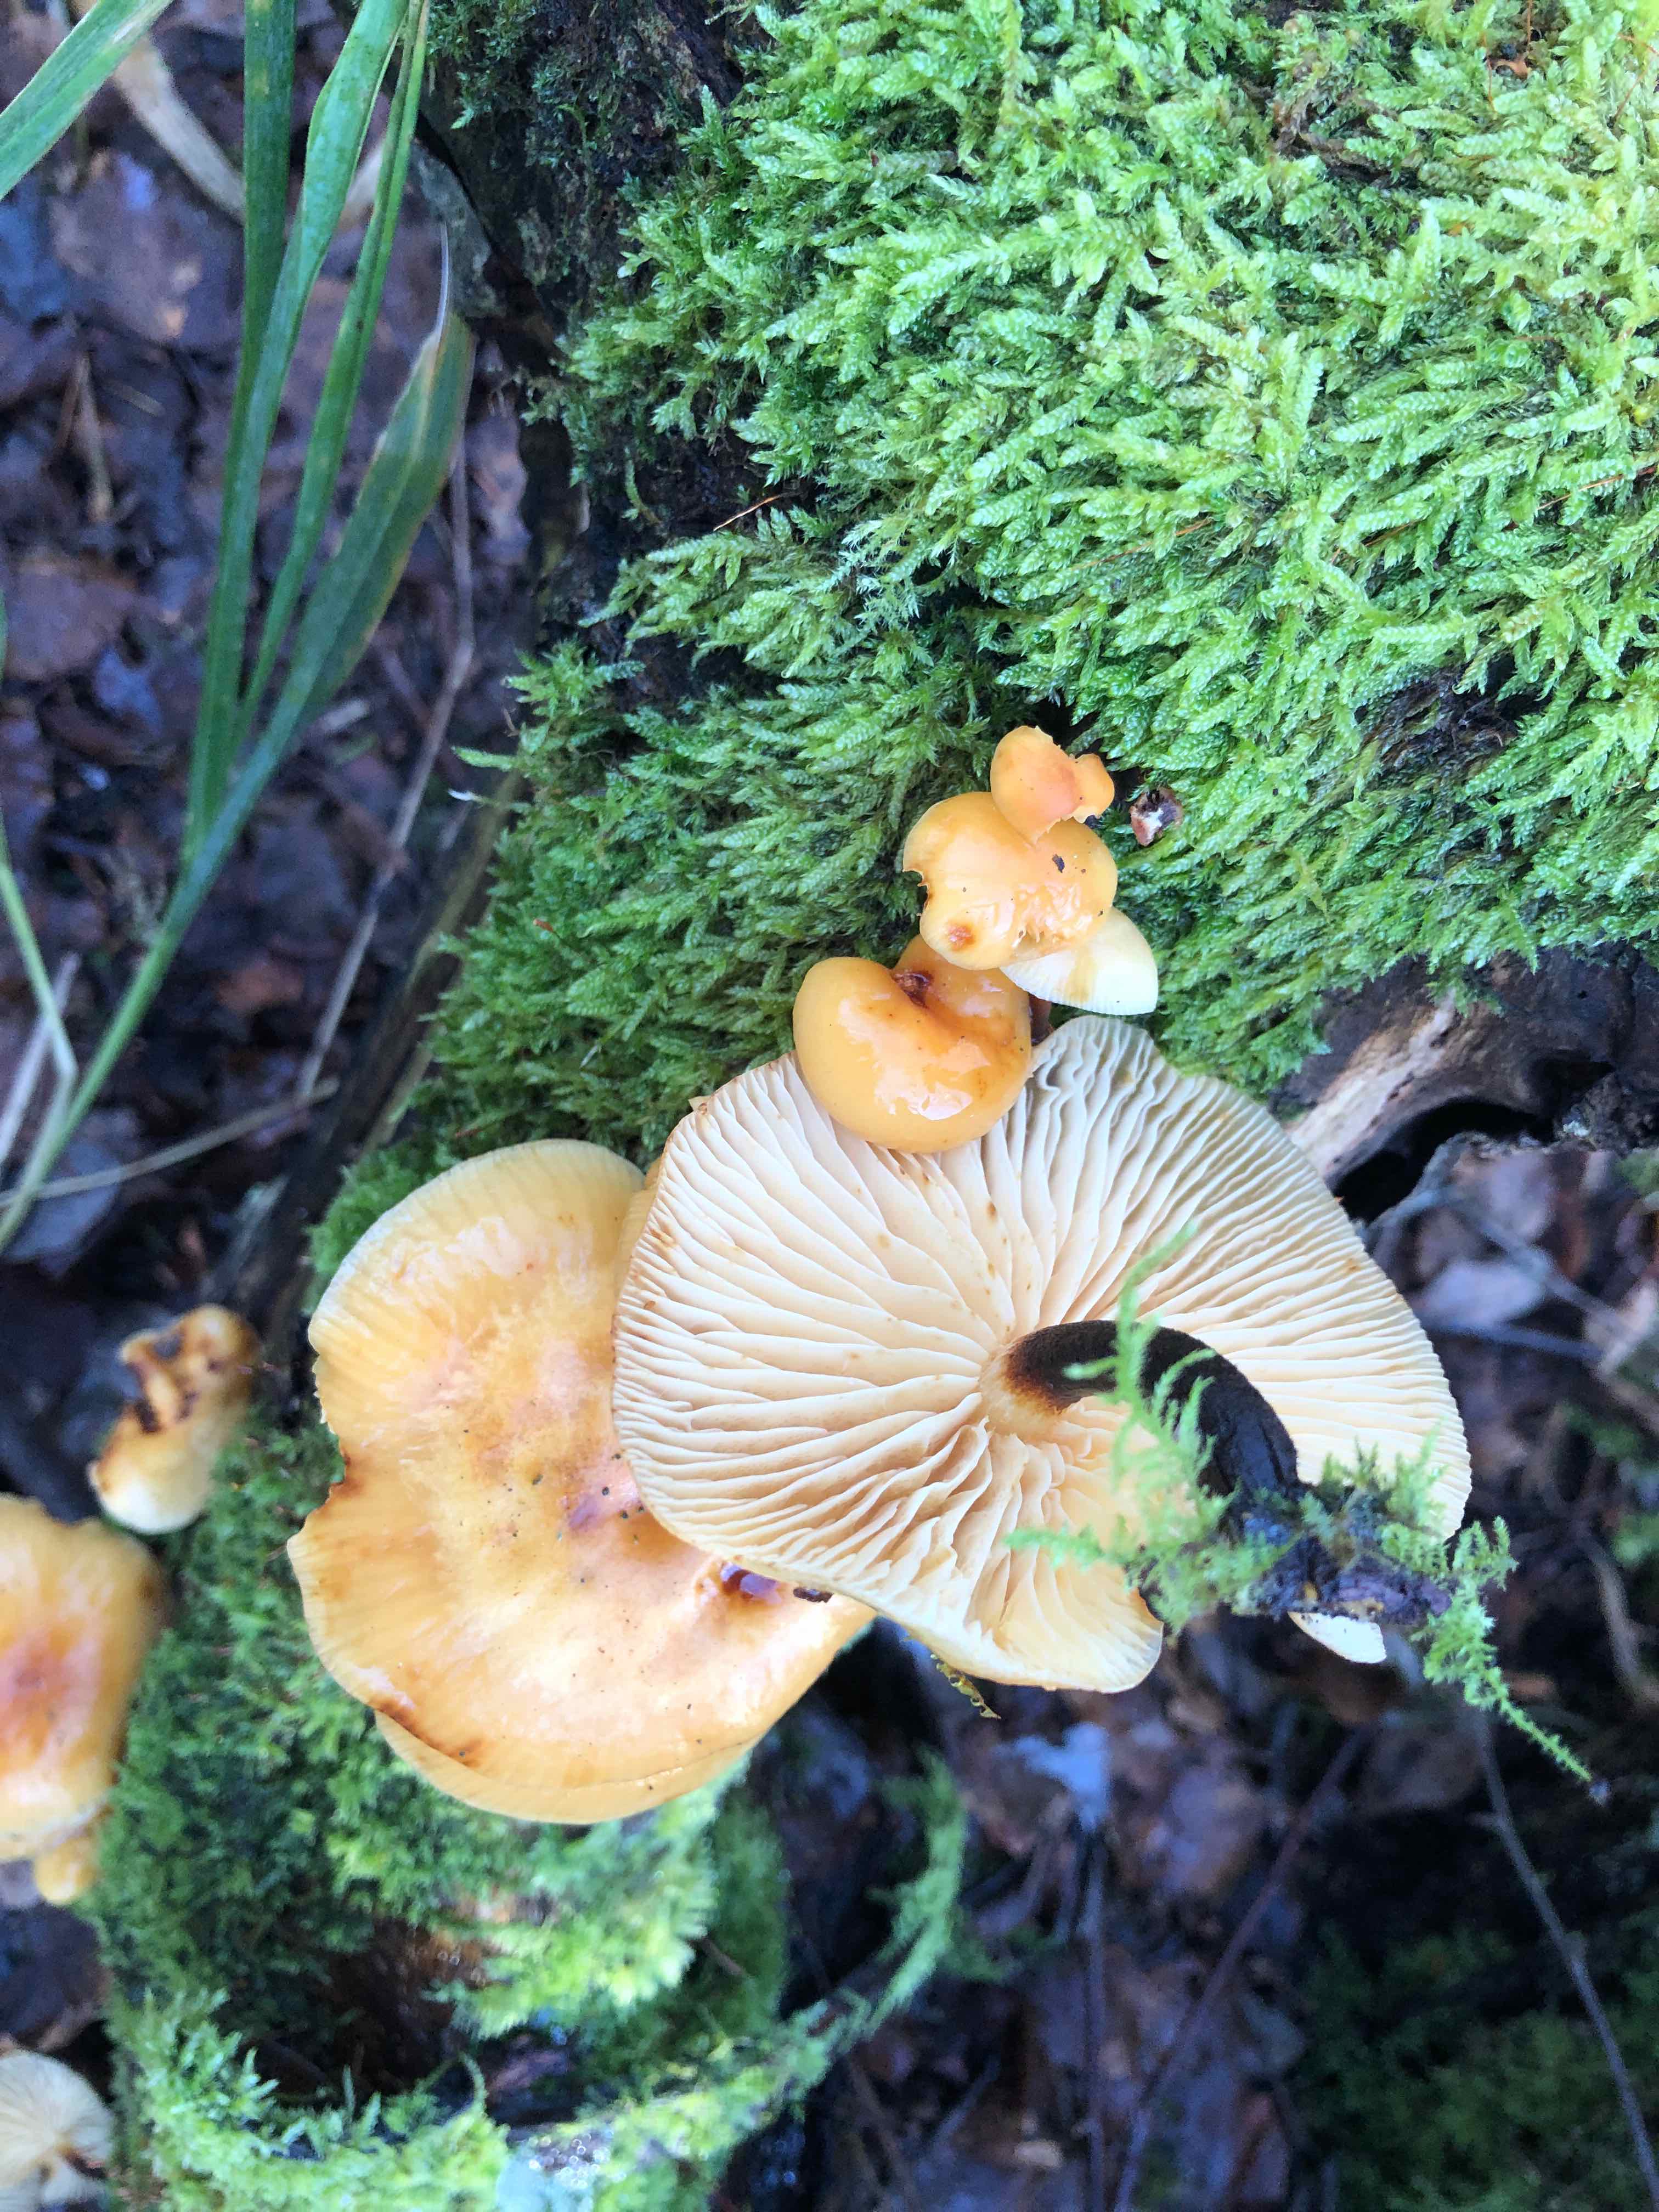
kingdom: Fungi
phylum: Basidiomycota
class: Agaricomycetes
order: Agaricales
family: Physalacriaceae
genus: Flammulina
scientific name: Flammulina
